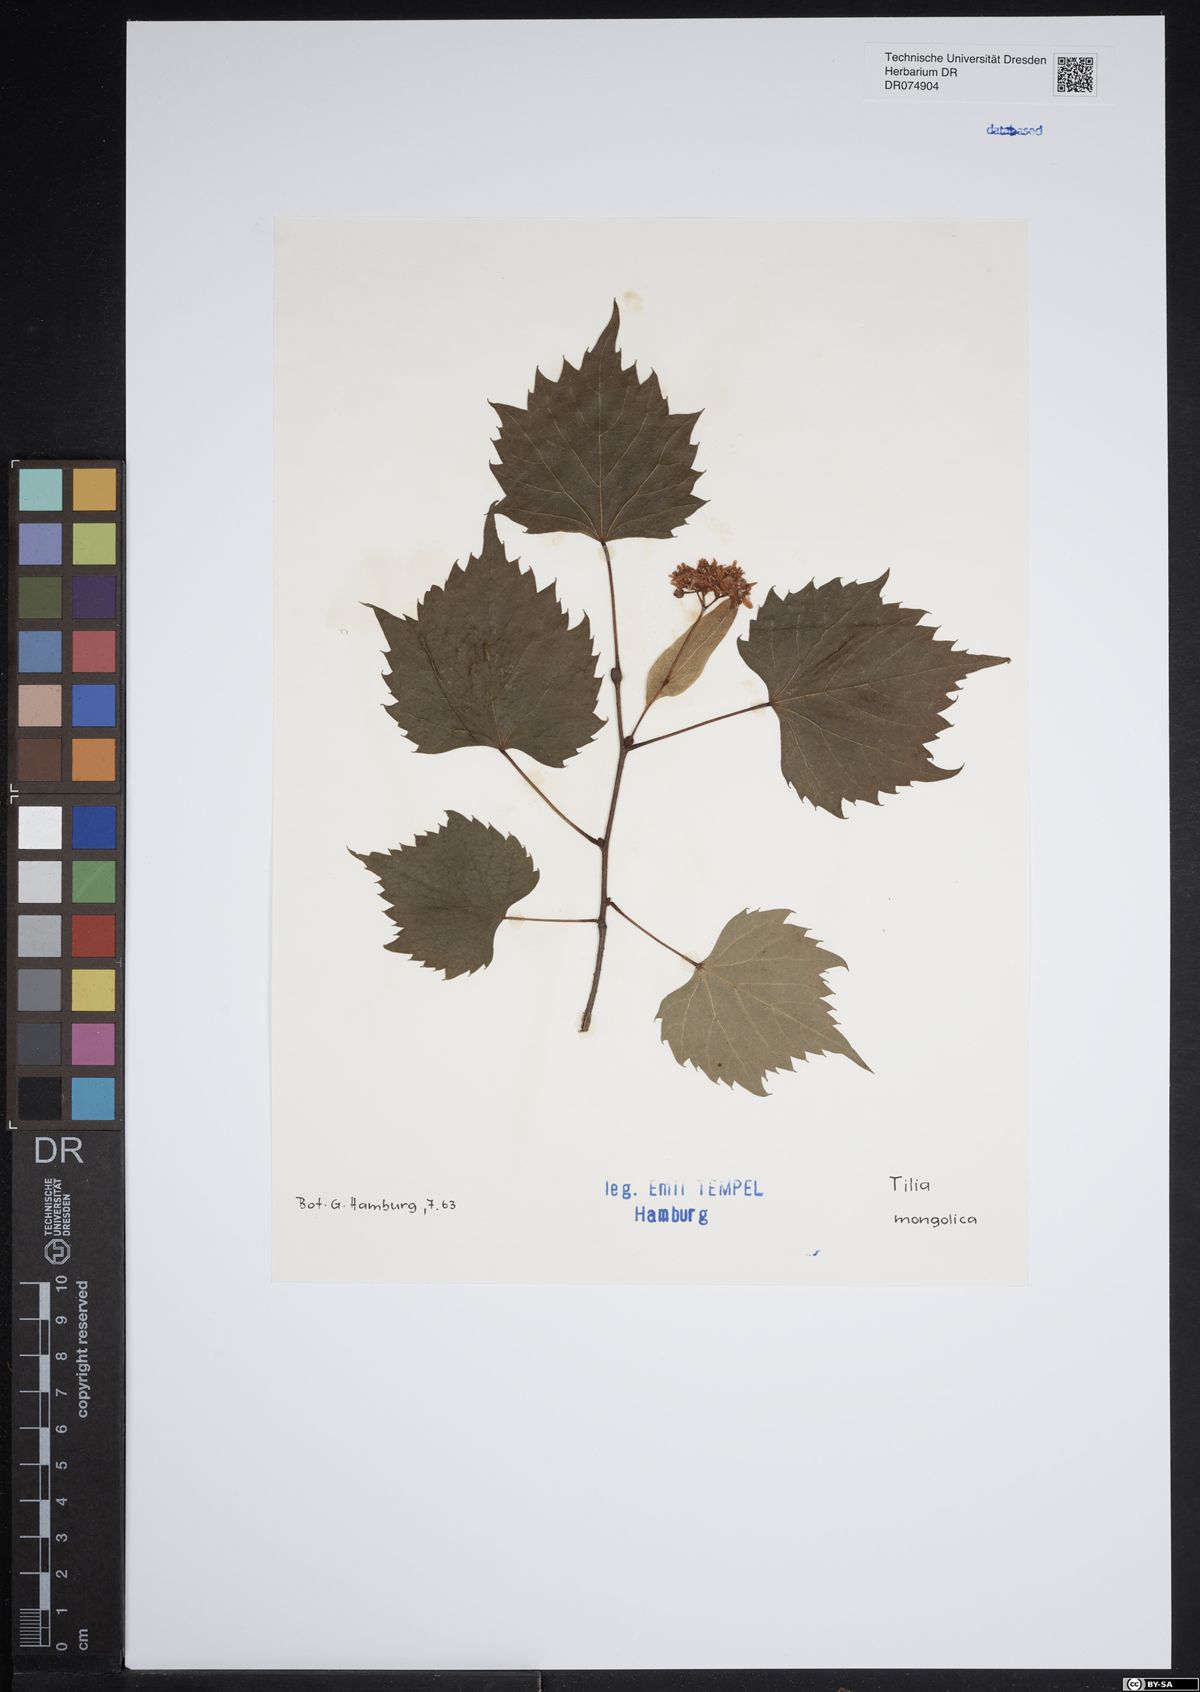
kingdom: Plantae
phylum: Tracheophyta
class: Magnoliopsida
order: Malvales
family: Malvaceae
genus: Tilia
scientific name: Tilia mongolica
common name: Mongolian lime
